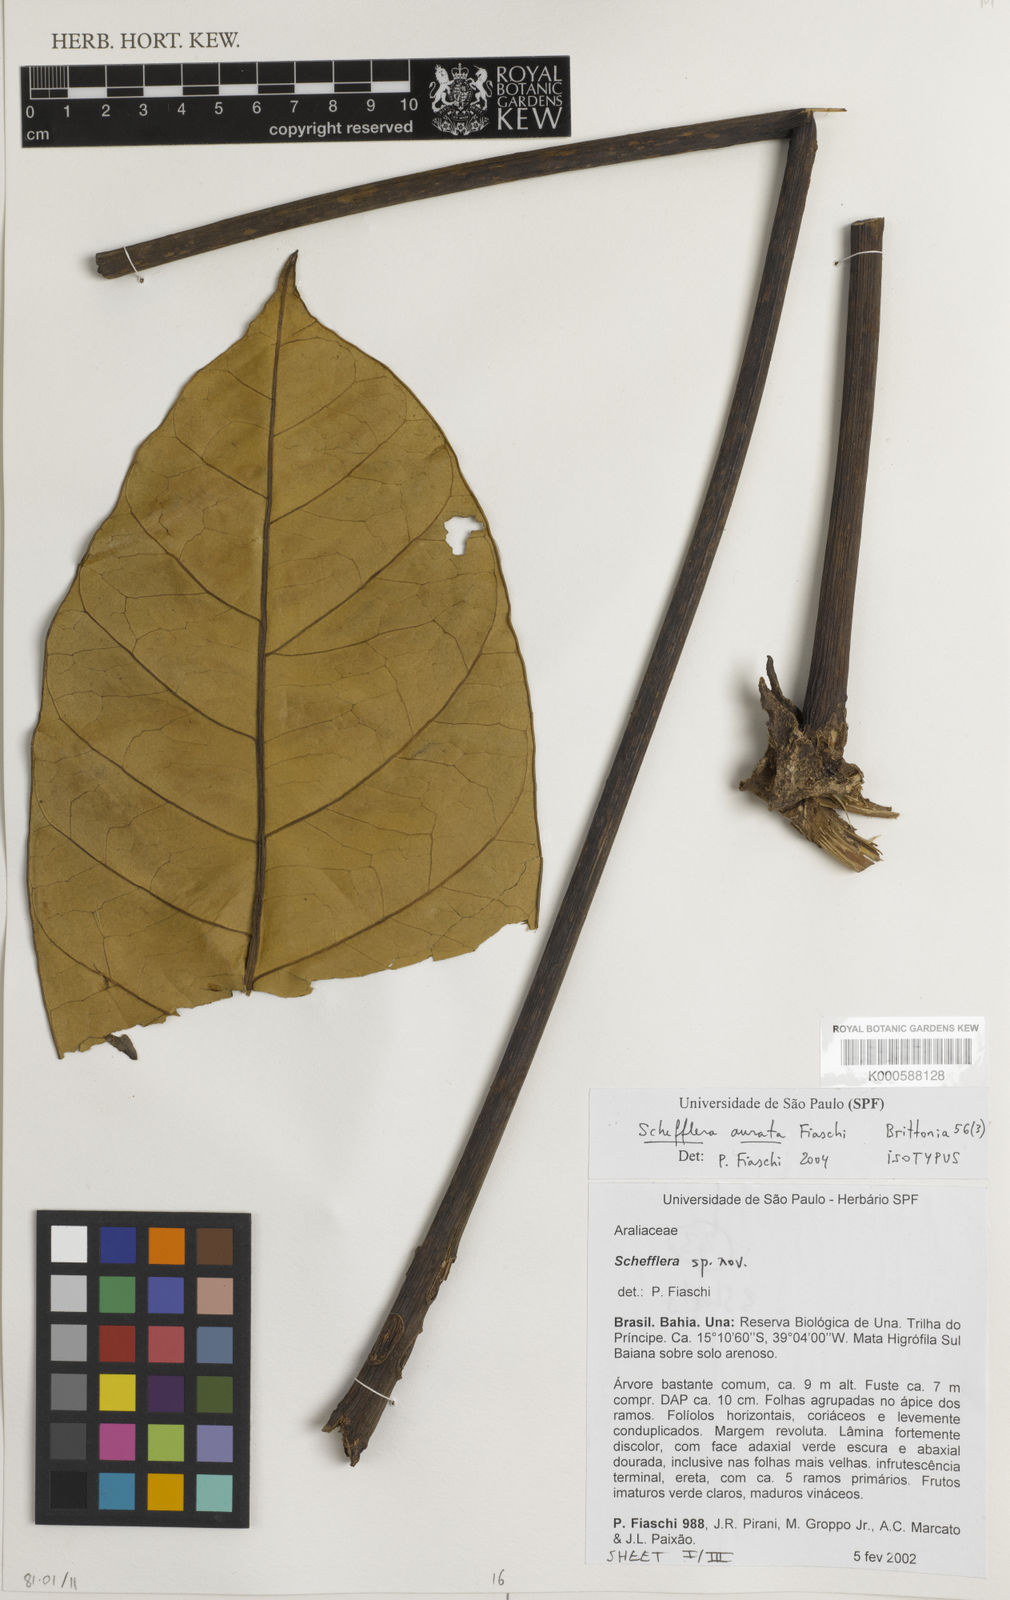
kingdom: Plantae
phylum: Tracheophyta
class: Magnoliopsida
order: Apiales
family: Araliaceae
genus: Didymopanax
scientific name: Didymopanax auratus
